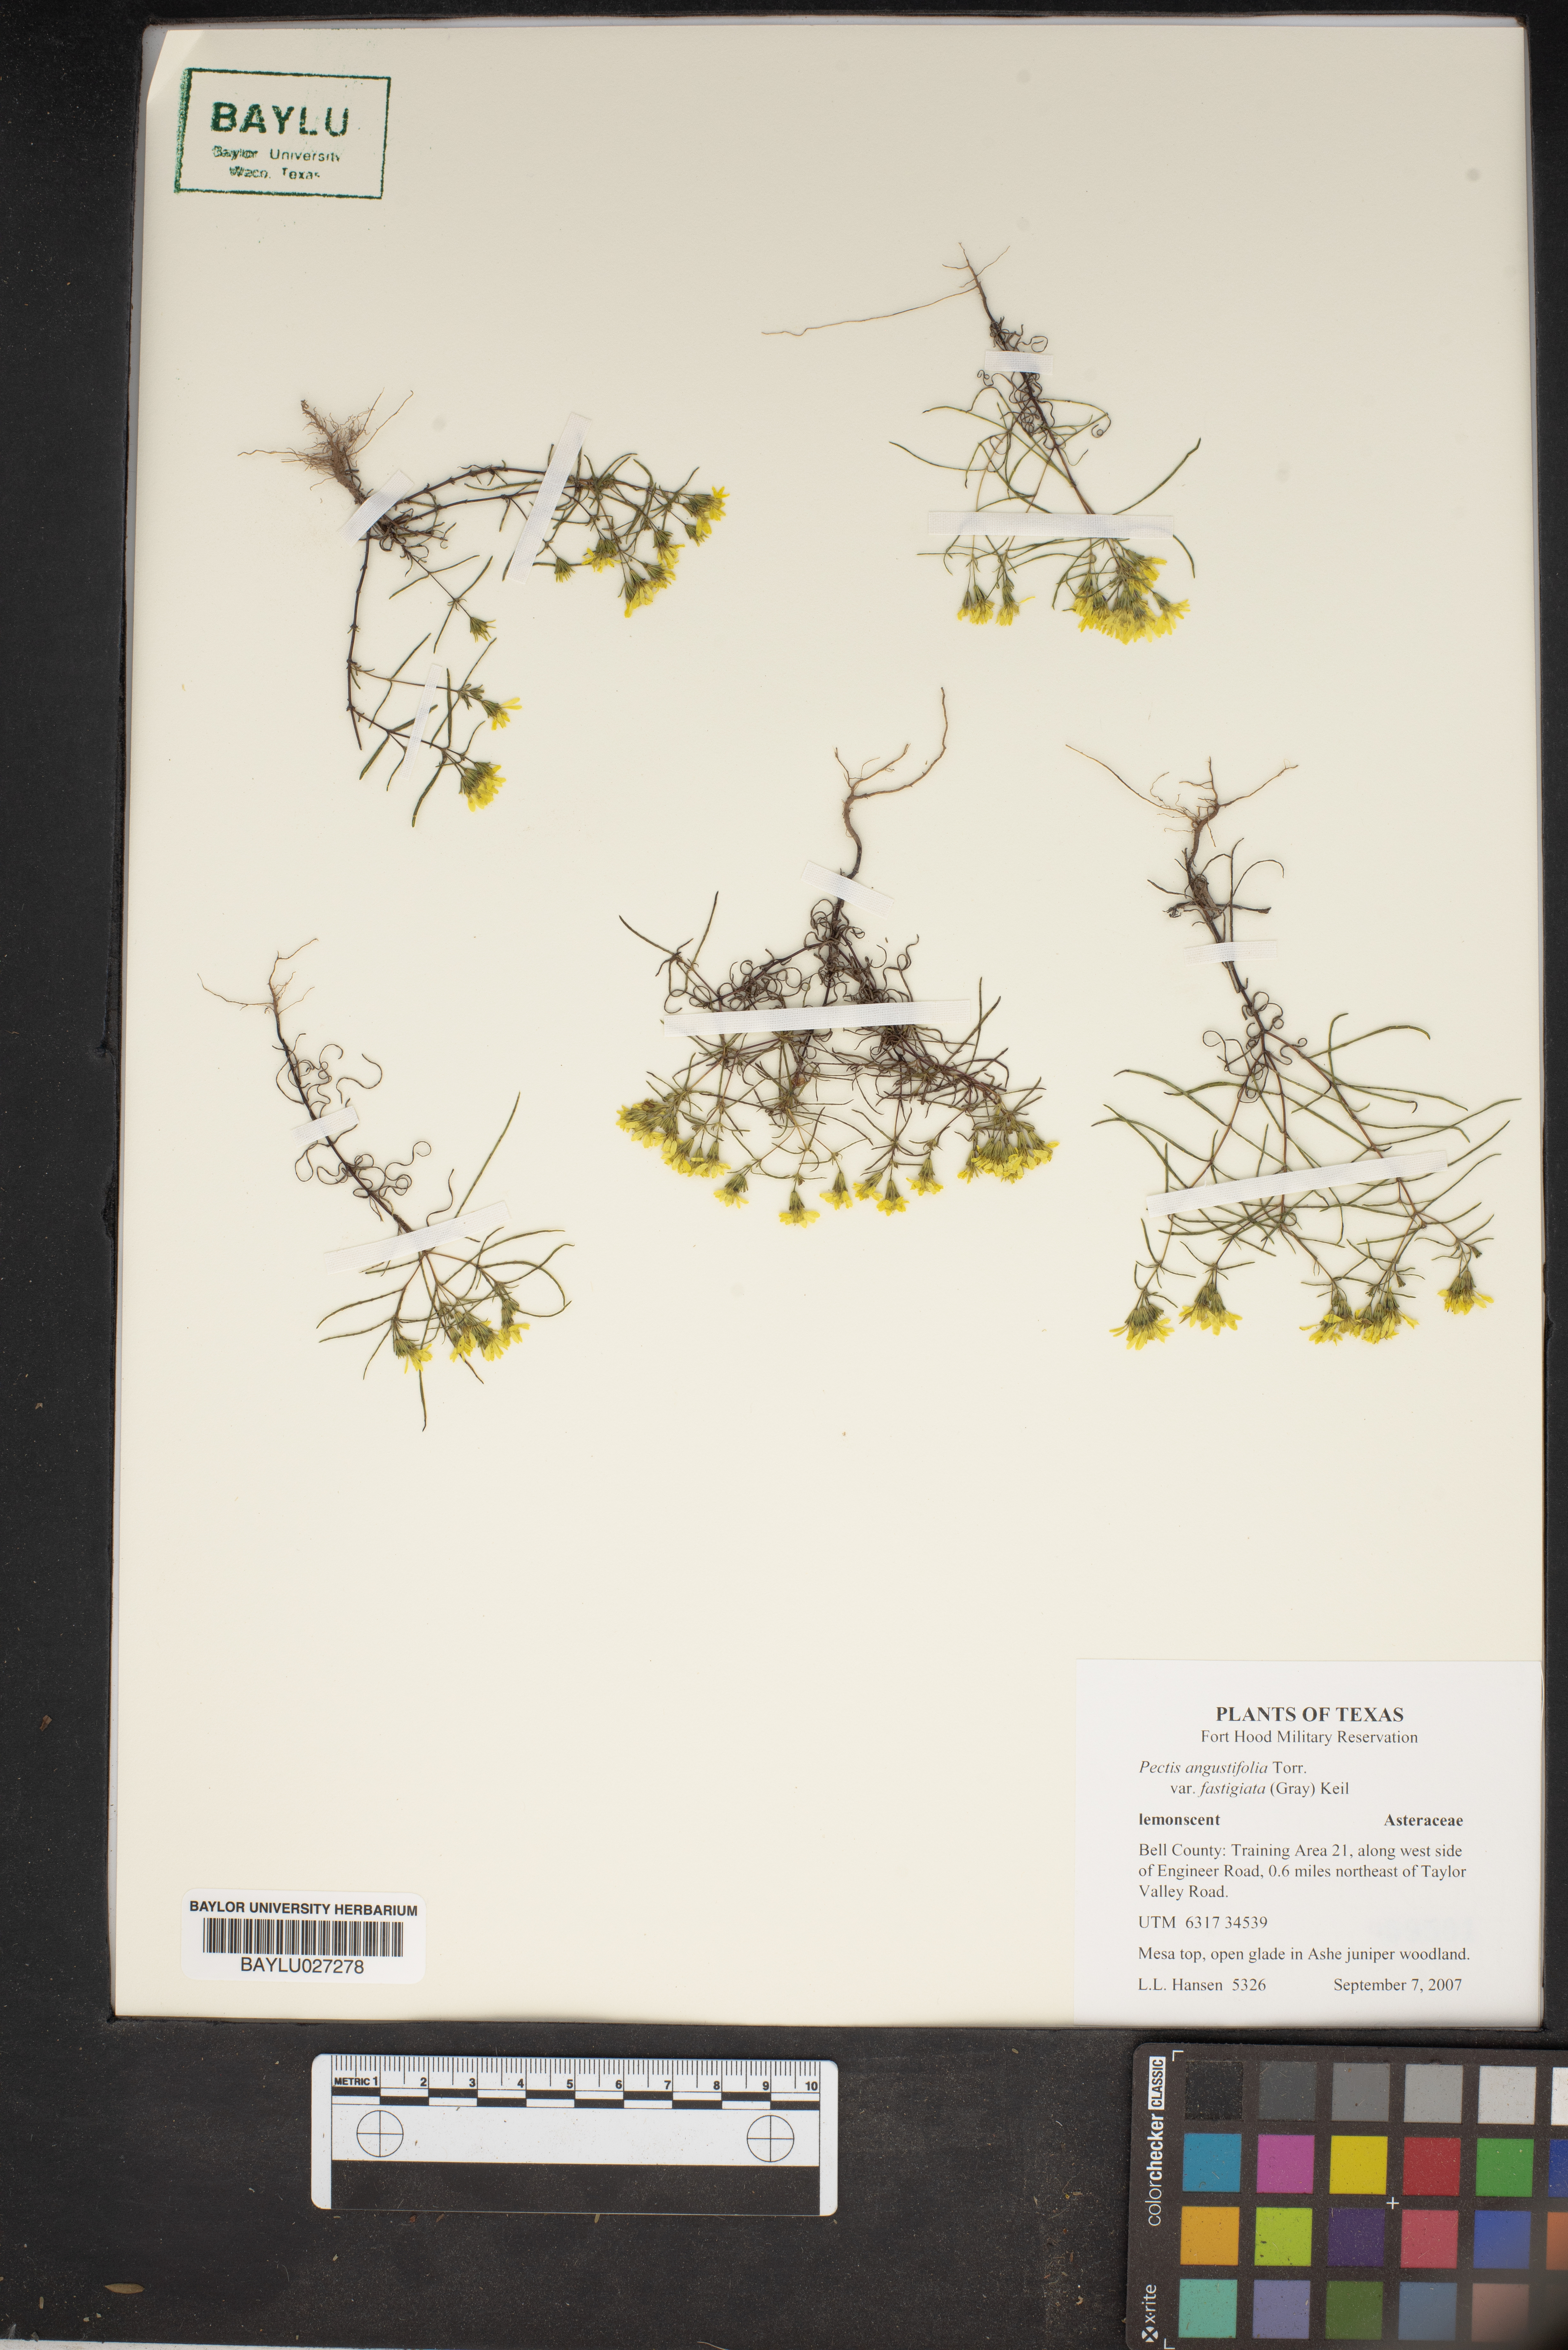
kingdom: Plantae
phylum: Tracheophyta
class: Magnoliopsida
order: Asterales
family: Asteraceae
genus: Pectis
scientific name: Pectis angustifolia
